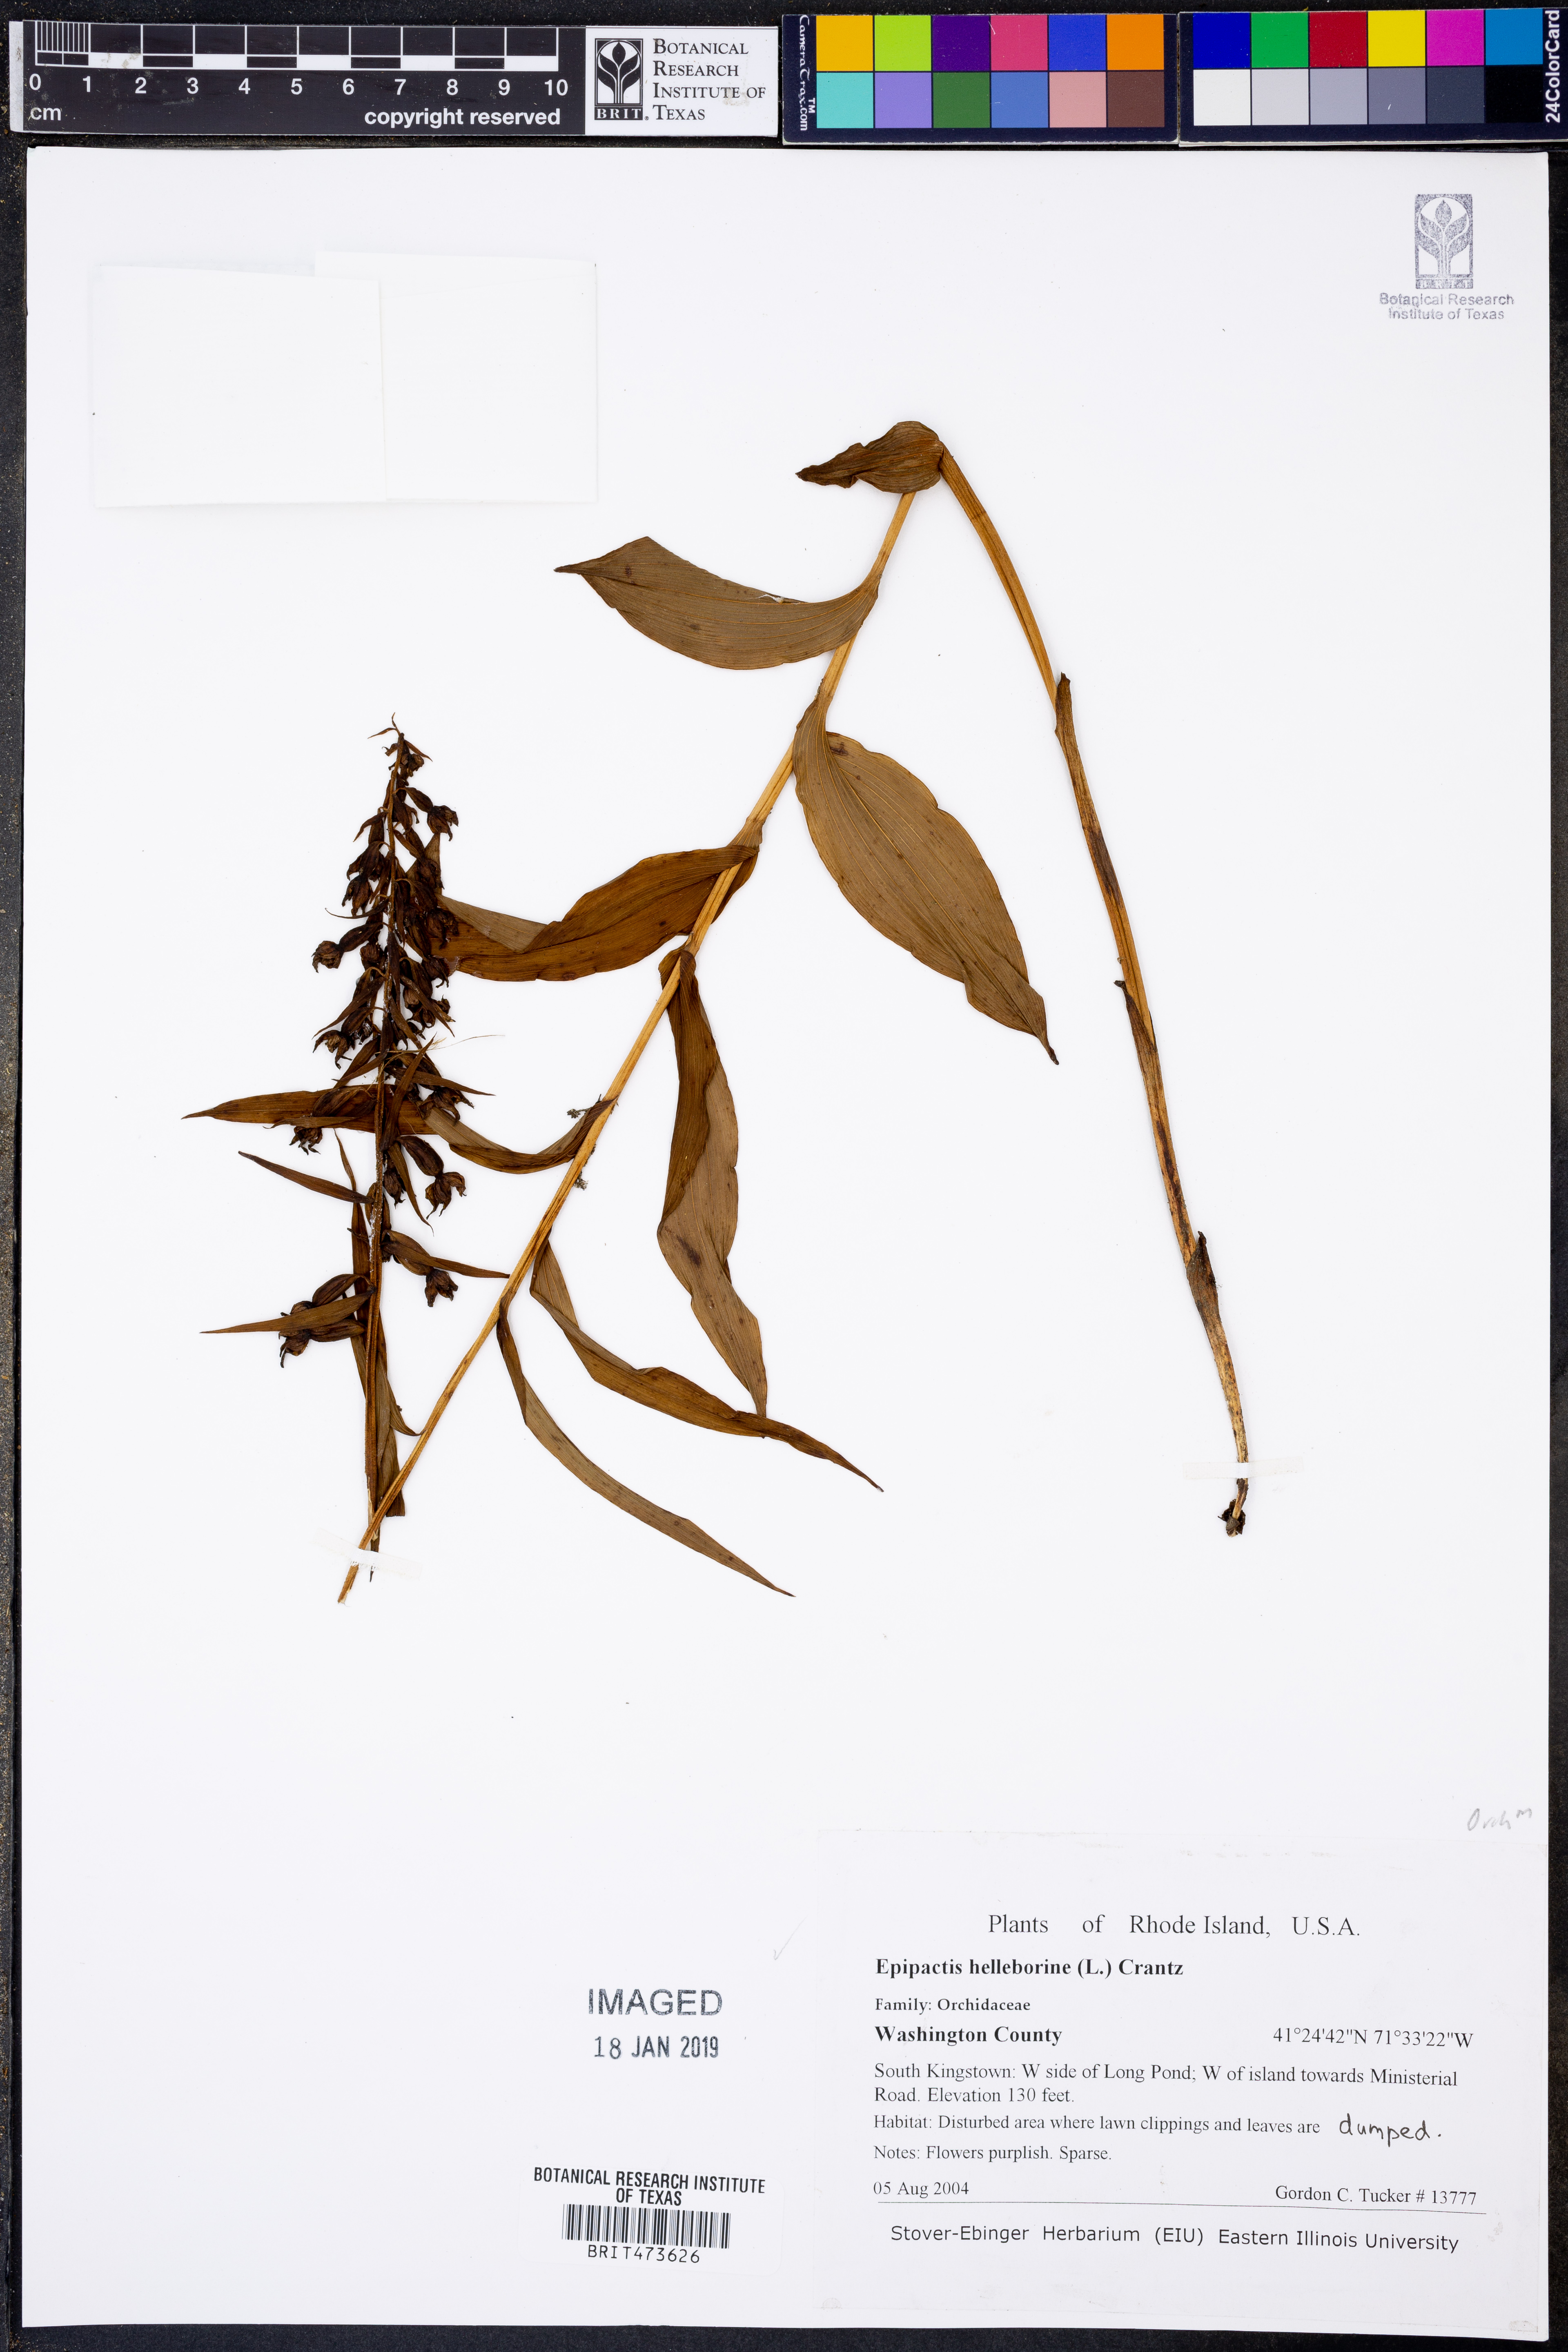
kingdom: Plantae
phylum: Tracheophyta
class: Liliopsida
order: Asparagales
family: Orchidaceae
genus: Epipactis
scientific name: Epipactis helleborine
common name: Broad-leaved helleborine
